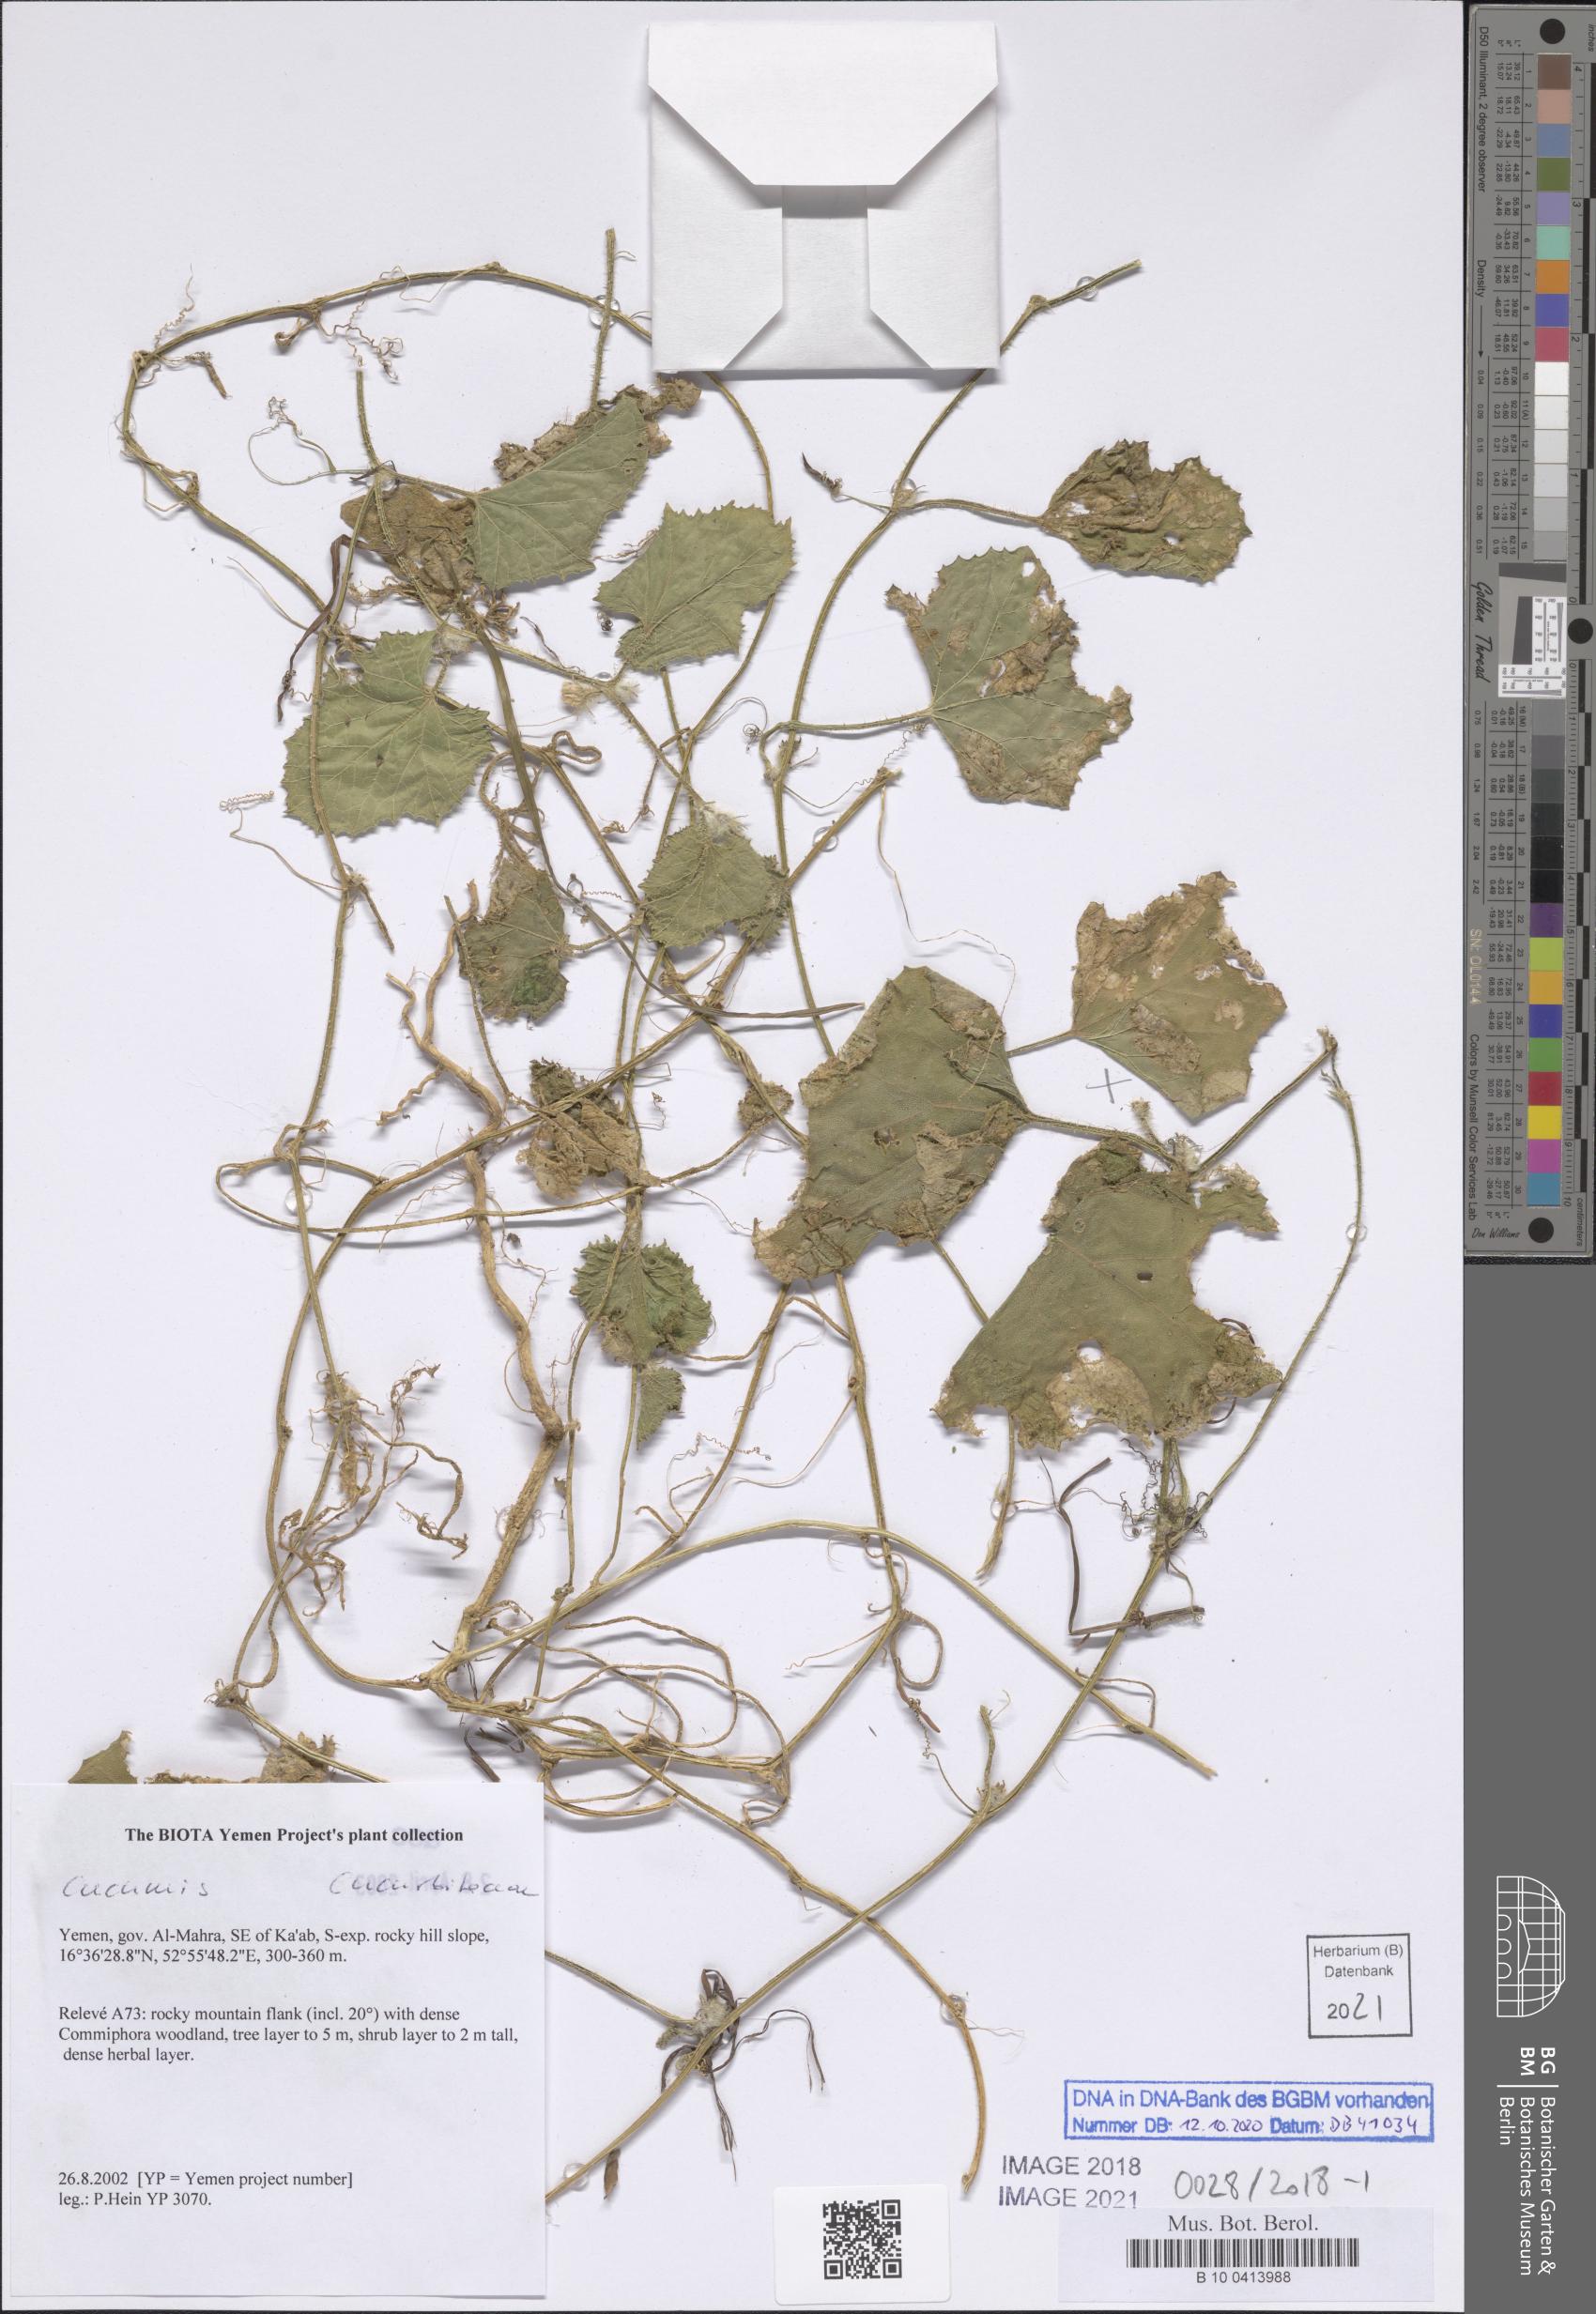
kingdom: Plantae
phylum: Tracheophyta
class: Magnoliopsida
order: Cucurbitales
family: Cucurbitaceae
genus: Cucumis
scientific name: Cucumis
